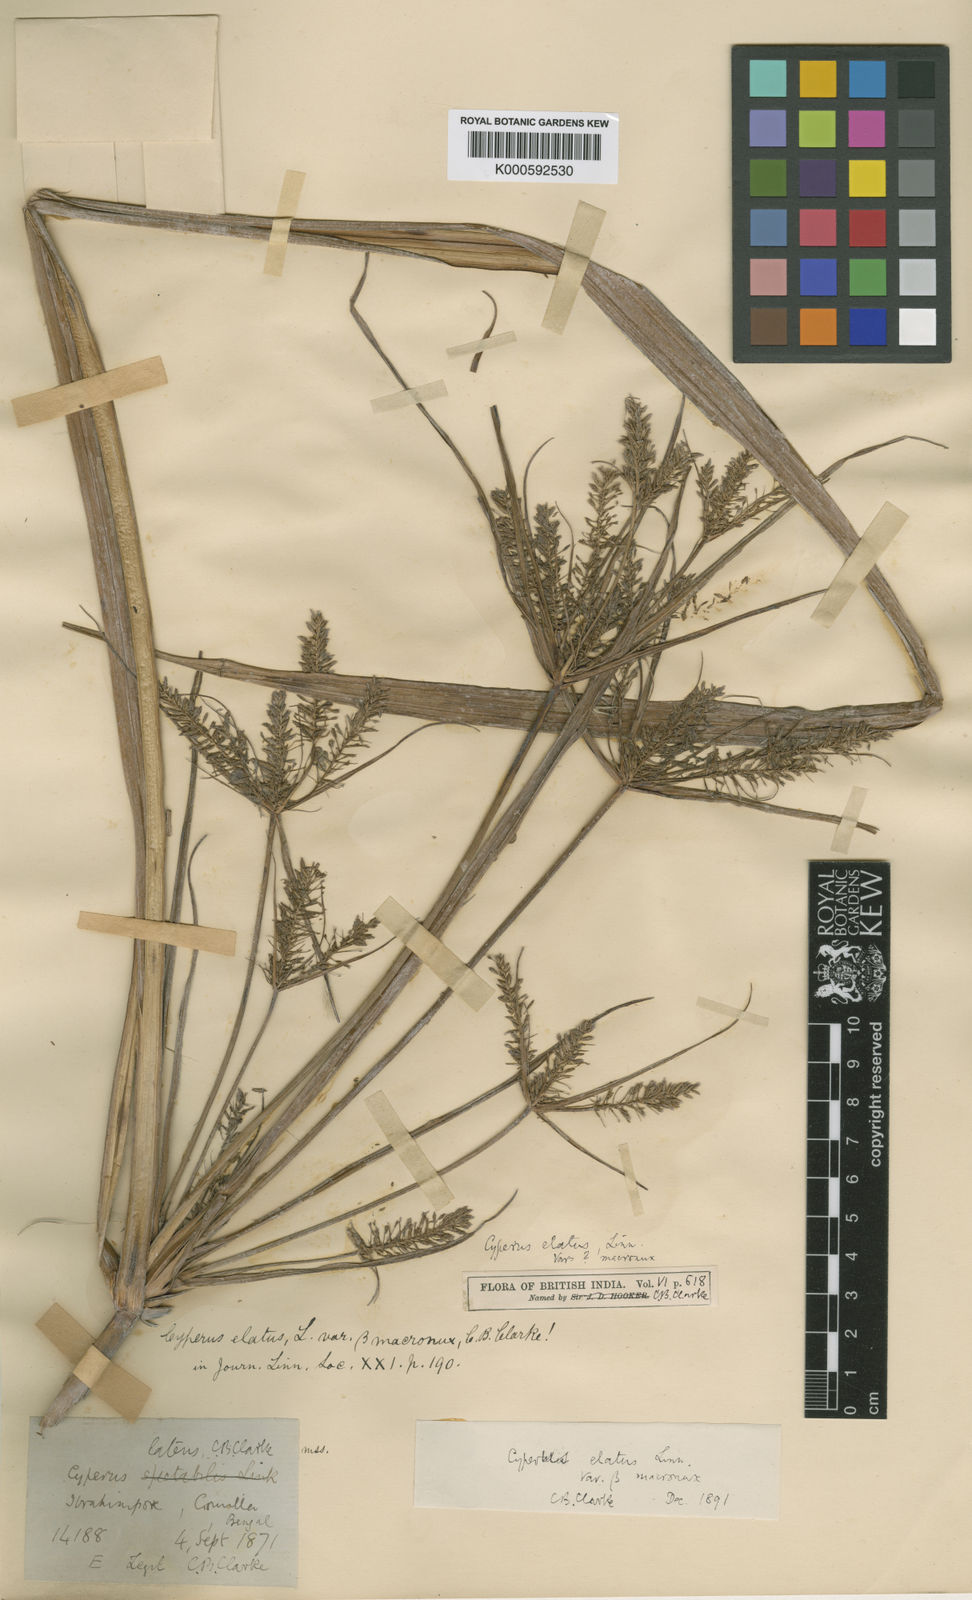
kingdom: Plantae
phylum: Tracheophyta
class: Liliopsida
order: Poales
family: Cyperaceae
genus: Cyperus
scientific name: Cyperus elatus
